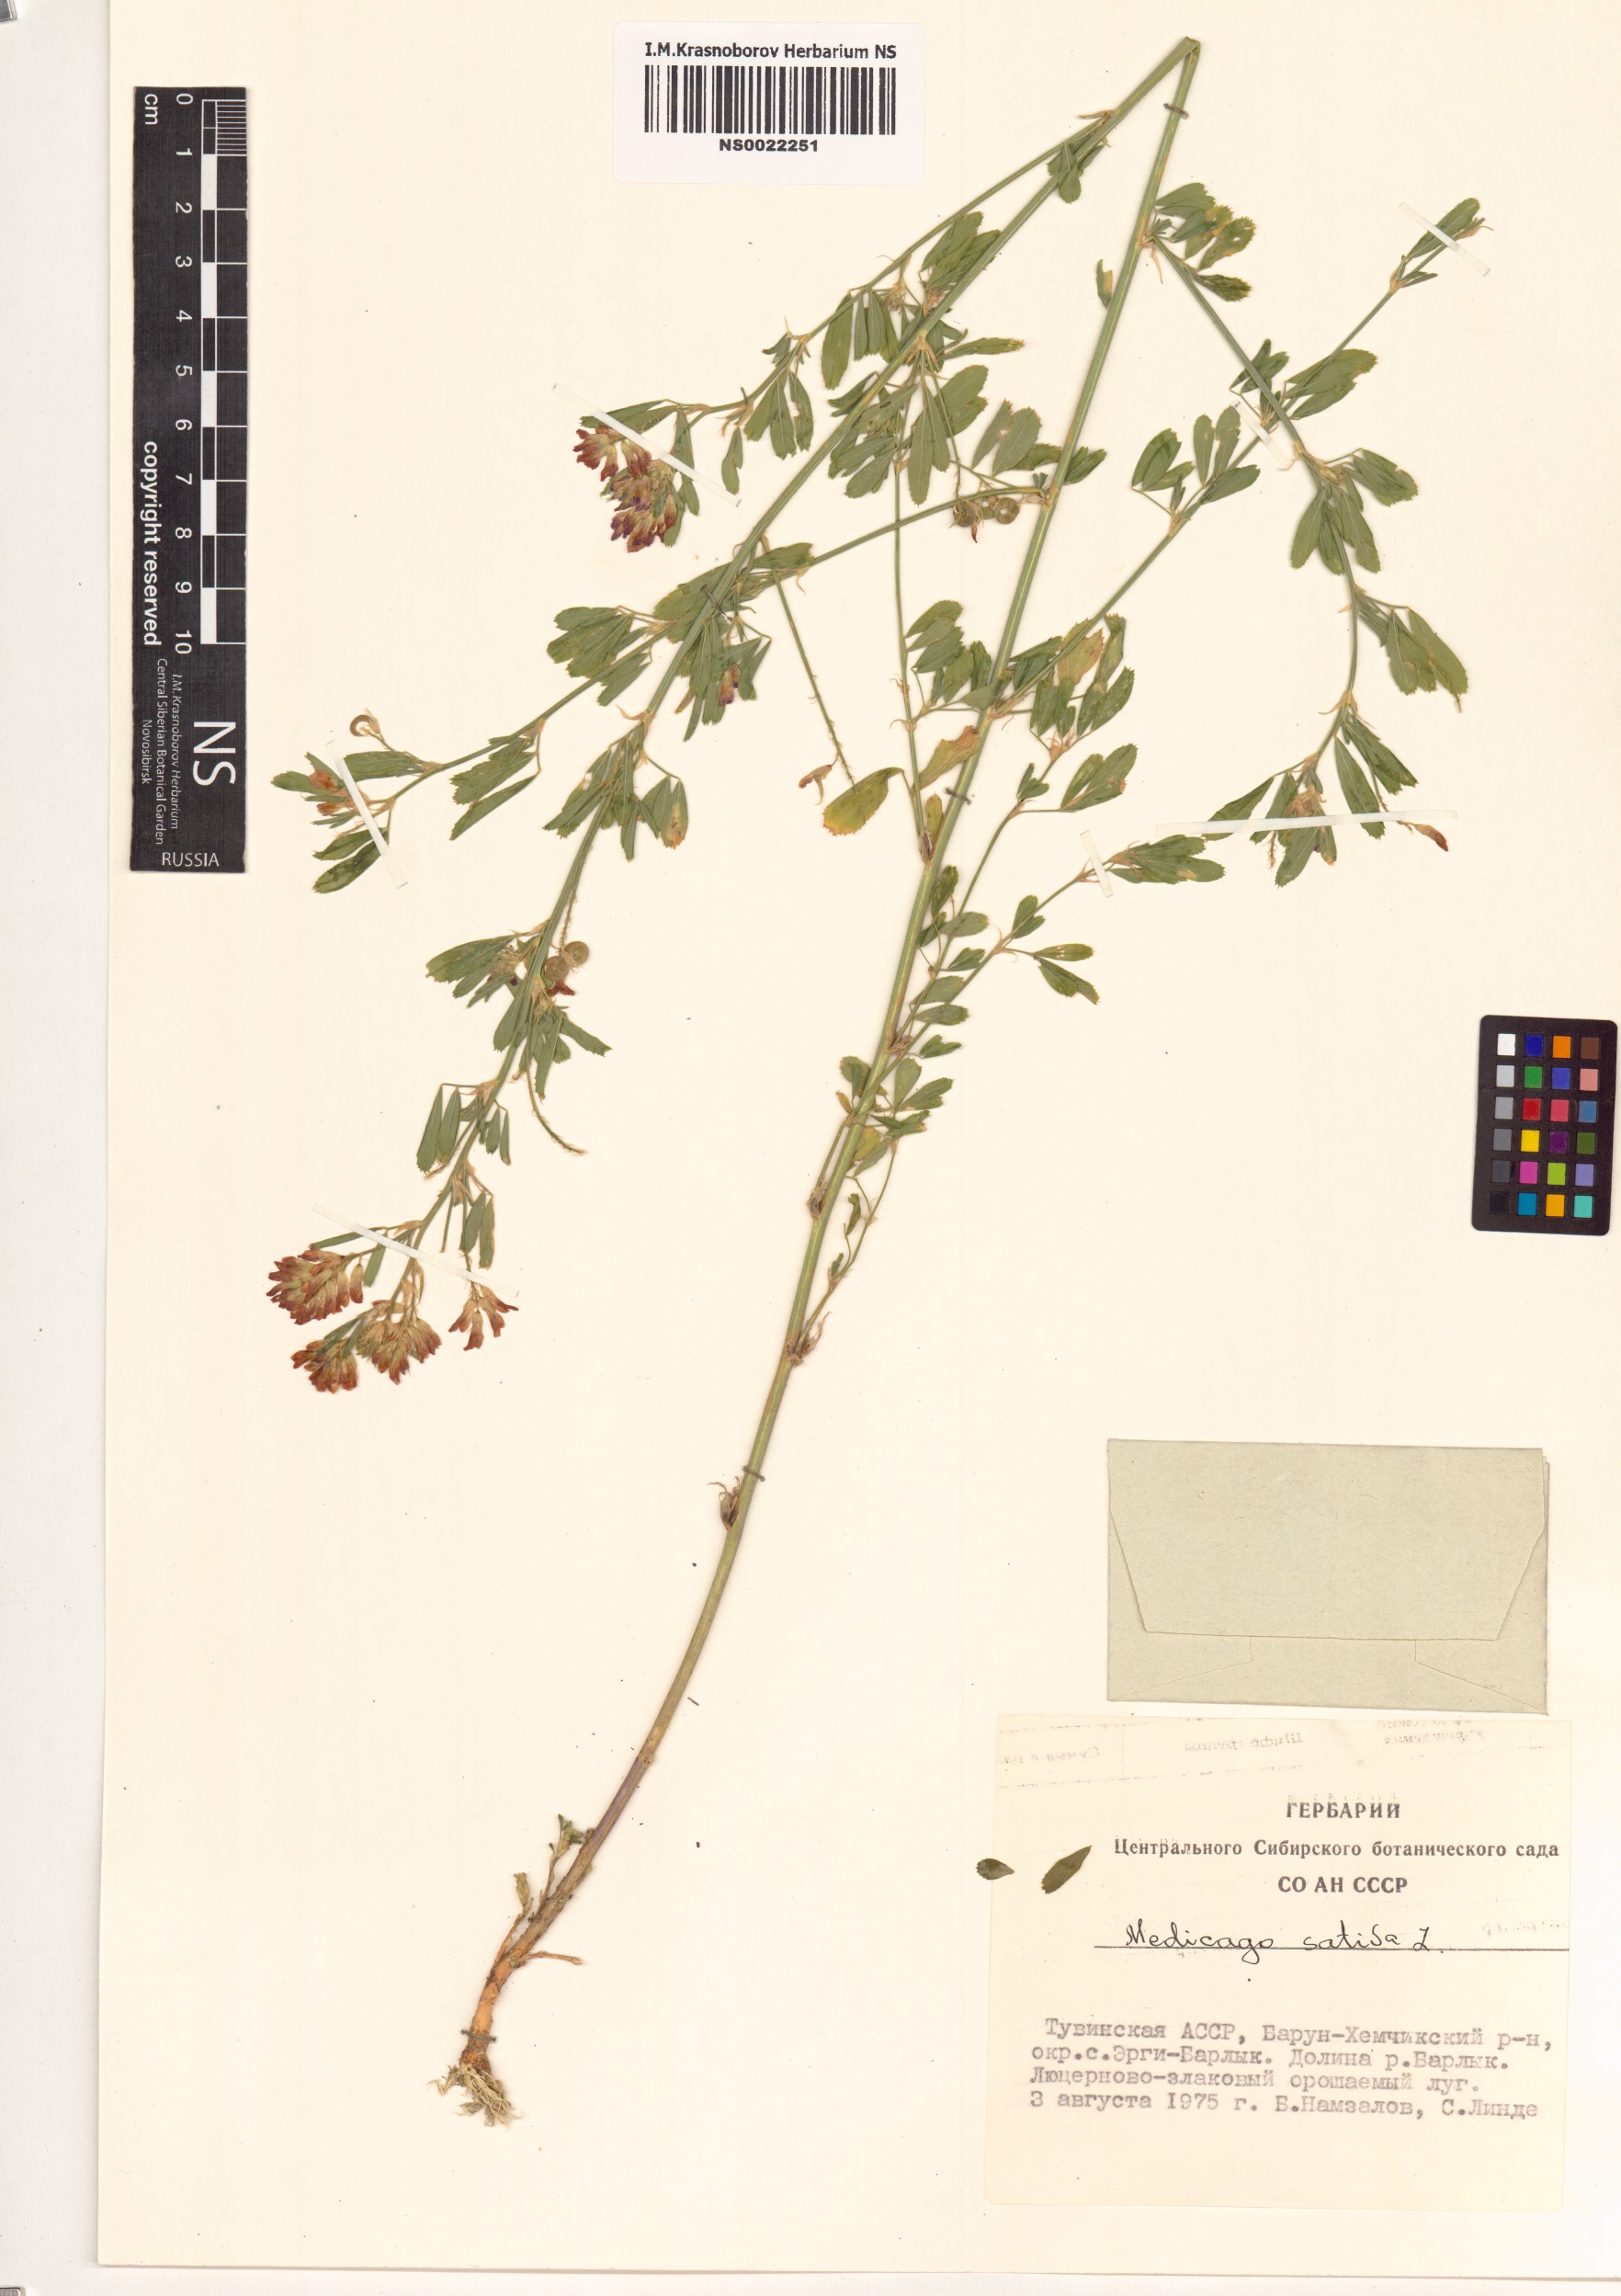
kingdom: Plantae
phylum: Tracheophyta
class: Magnoliopsida
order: Fabales
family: Fabaceae
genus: Medicago
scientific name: Medicago sativa
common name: Alfalfa
